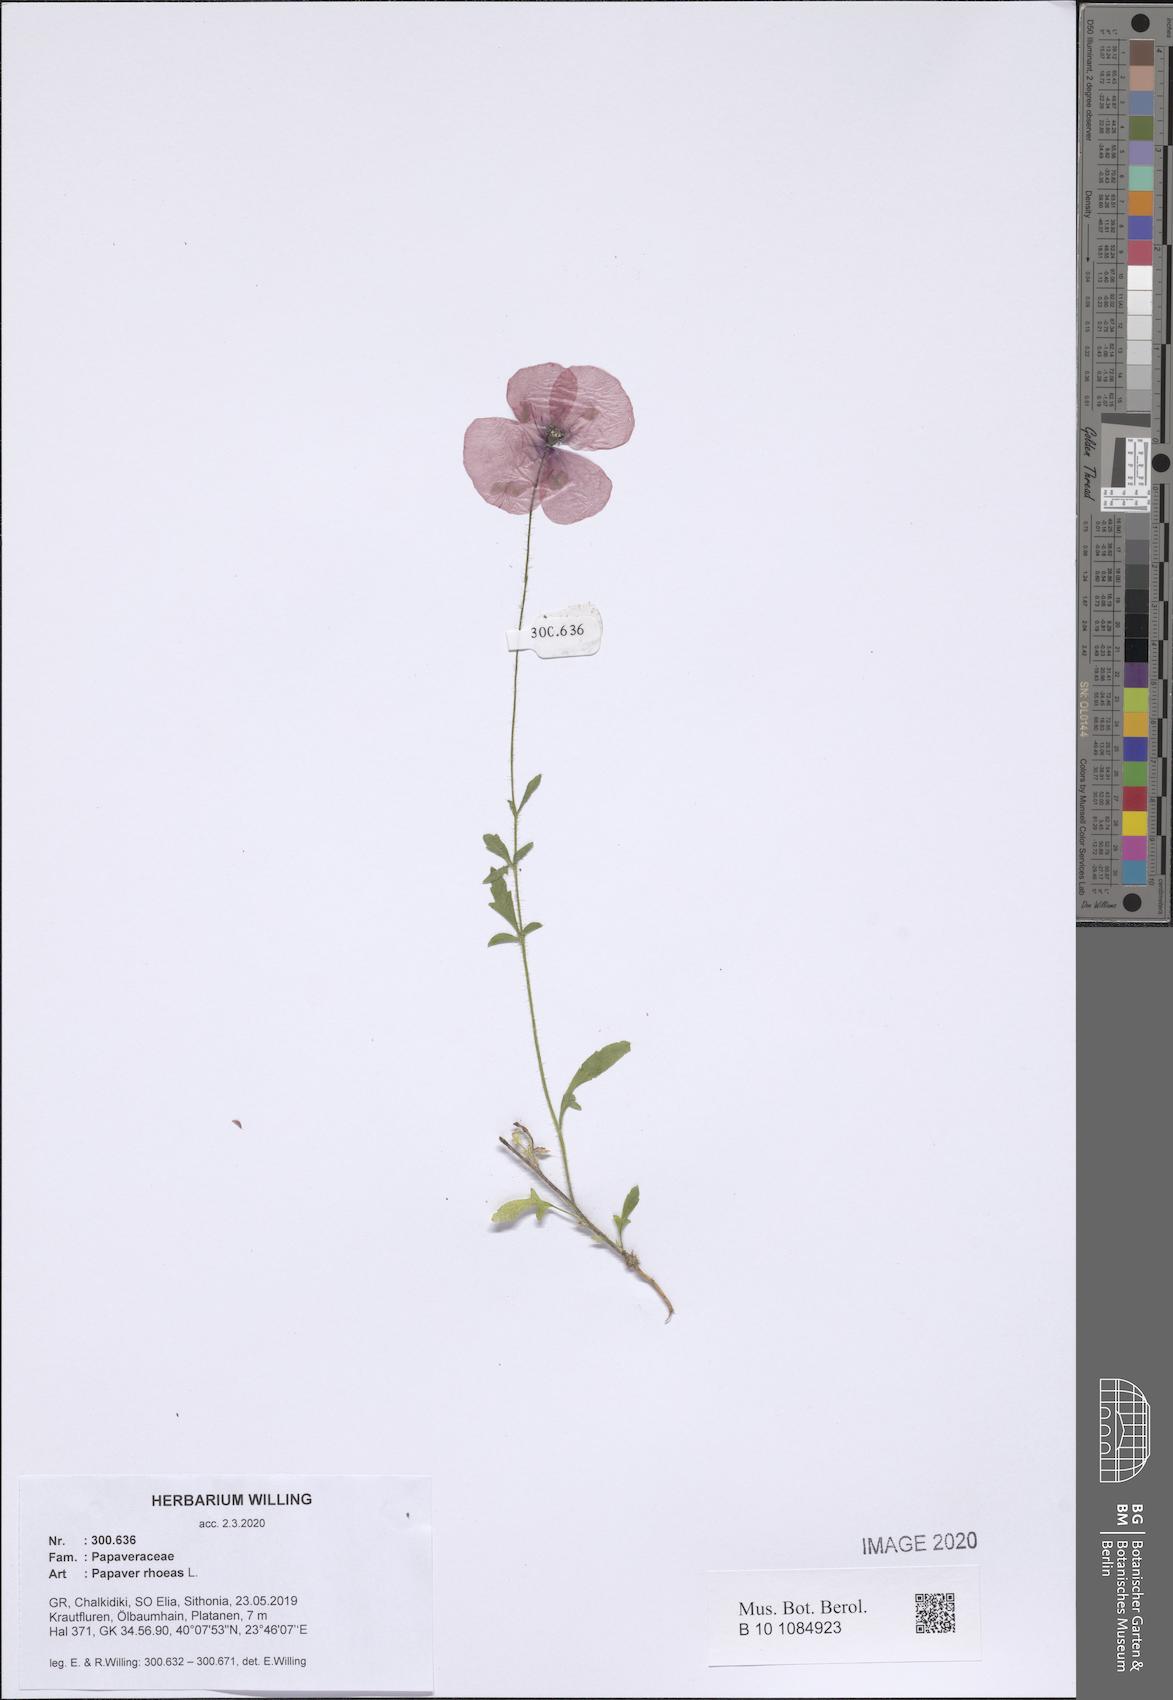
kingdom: Plantae
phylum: Tracheophyta
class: Magnoliopsida
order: Ranunculales
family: Papaveraceae
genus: Papaver
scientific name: Papaver rhoeas
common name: Corn poppy
